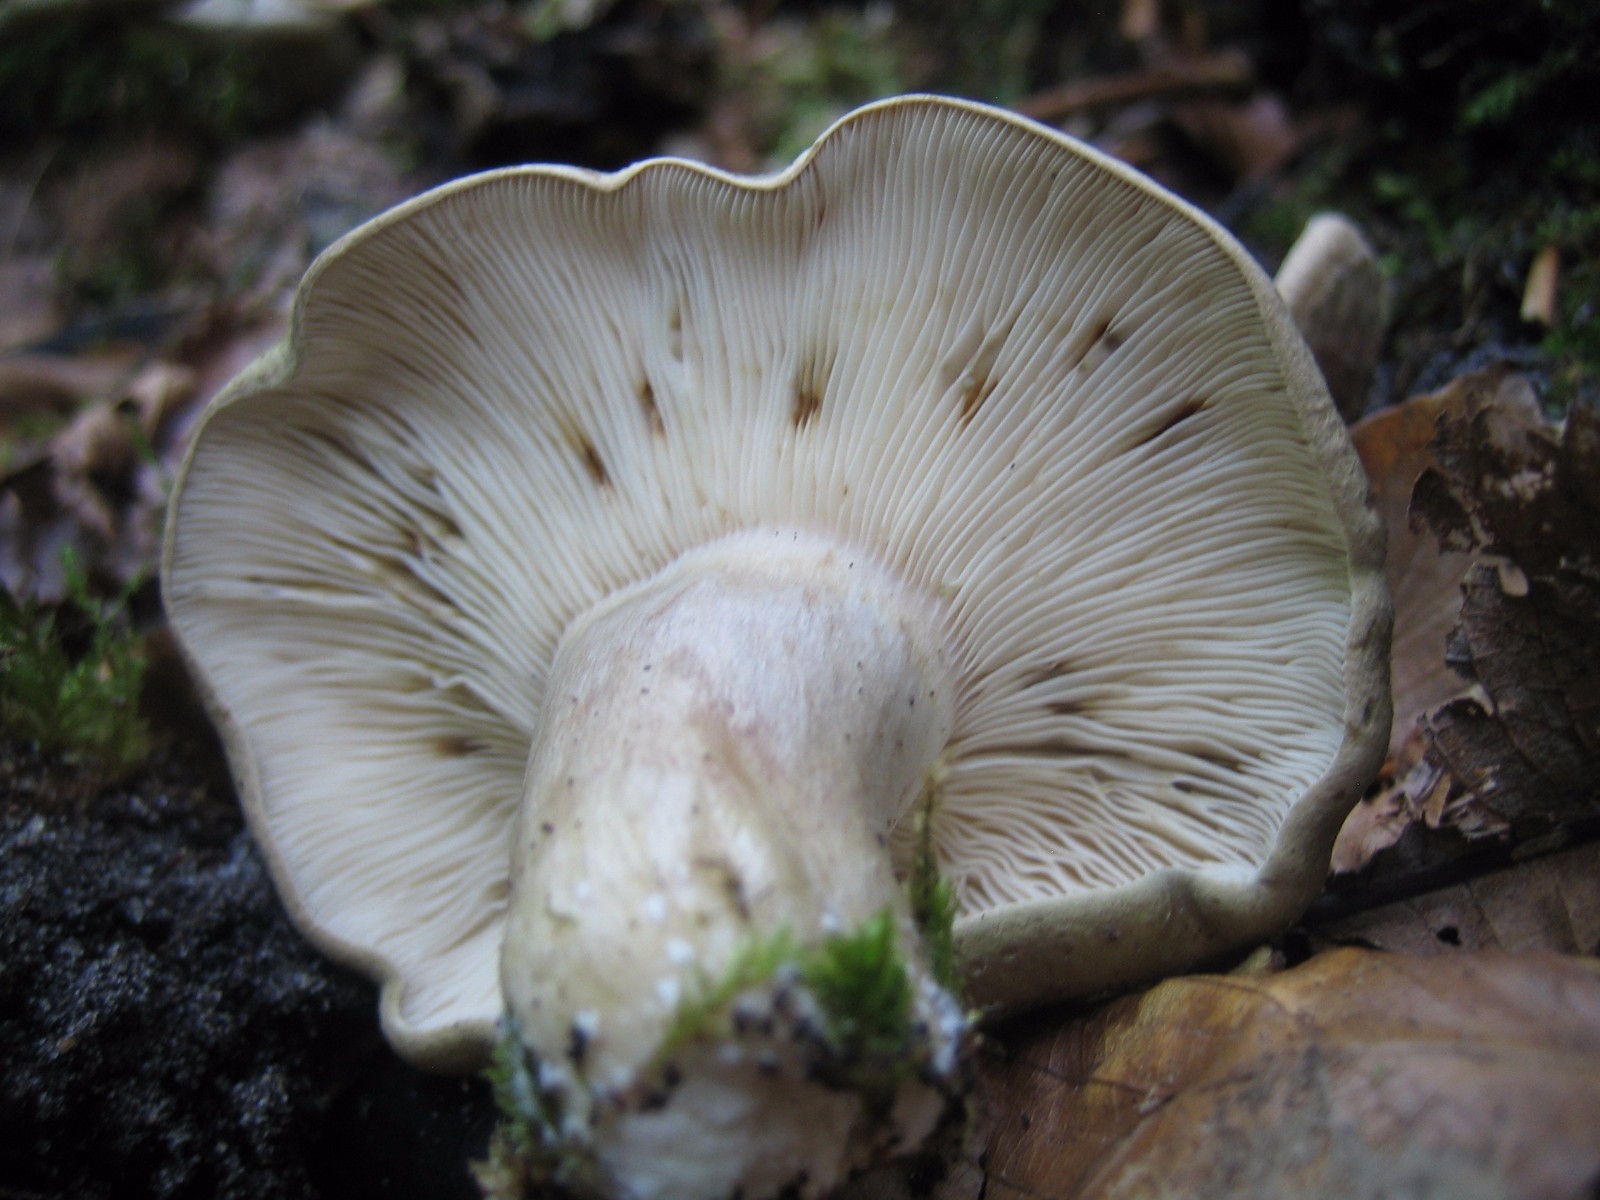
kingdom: Fungi
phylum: Basidiomycota
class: Agaricomycetes
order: Russulales
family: Russulaceae
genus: Lactarius
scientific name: Lactarius blennius
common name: dråbeplettet mælkehat
